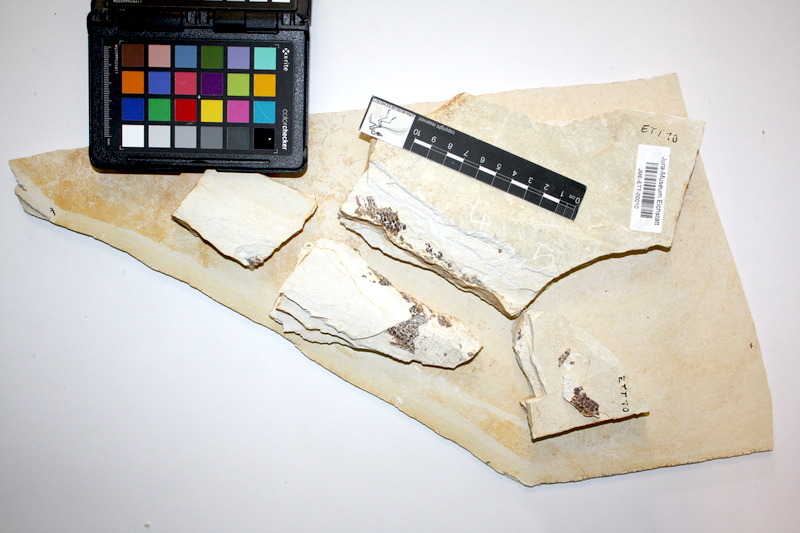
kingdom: Animalia
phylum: Chordata
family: Ophiopsiellidae
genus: Ophiopsiella
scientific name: Ophiopsiella
